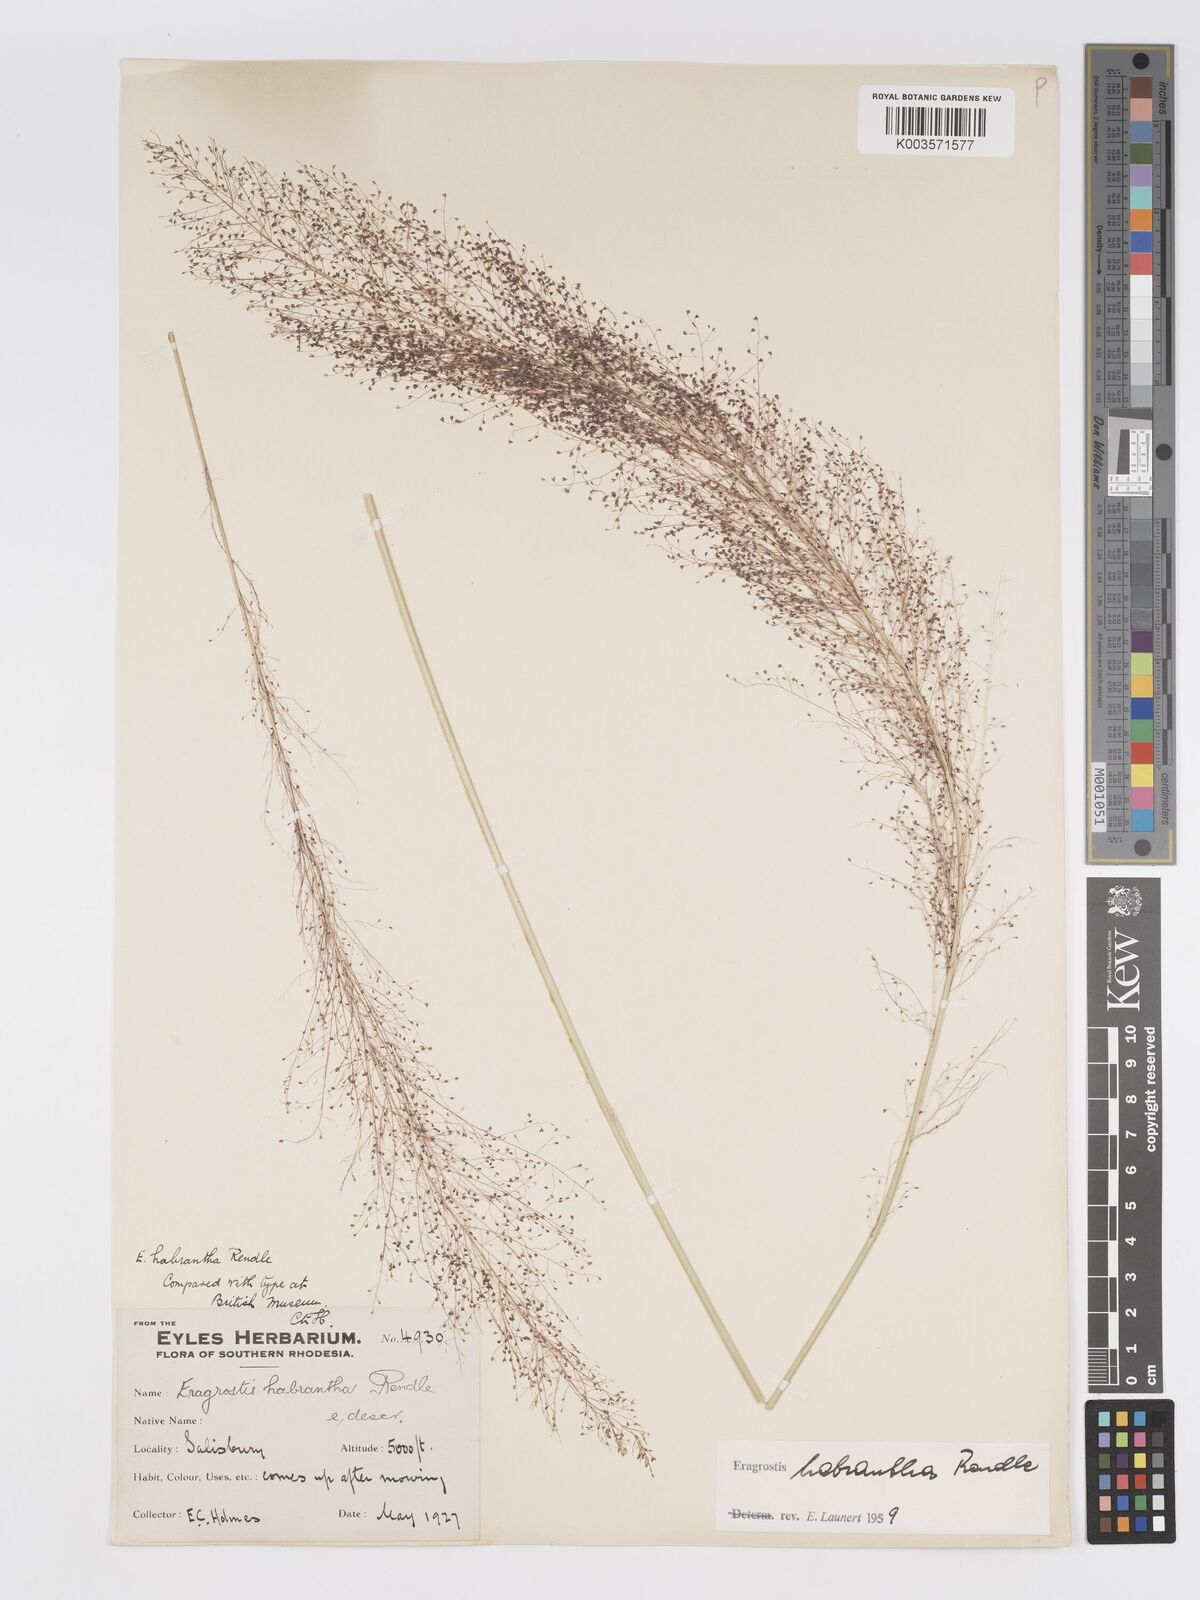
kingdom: Plantae
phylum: Tracheophyta
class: Liliopsida
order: Poales
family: Poaceae
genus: Eragrostis
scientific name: Eragrostis habrantha
